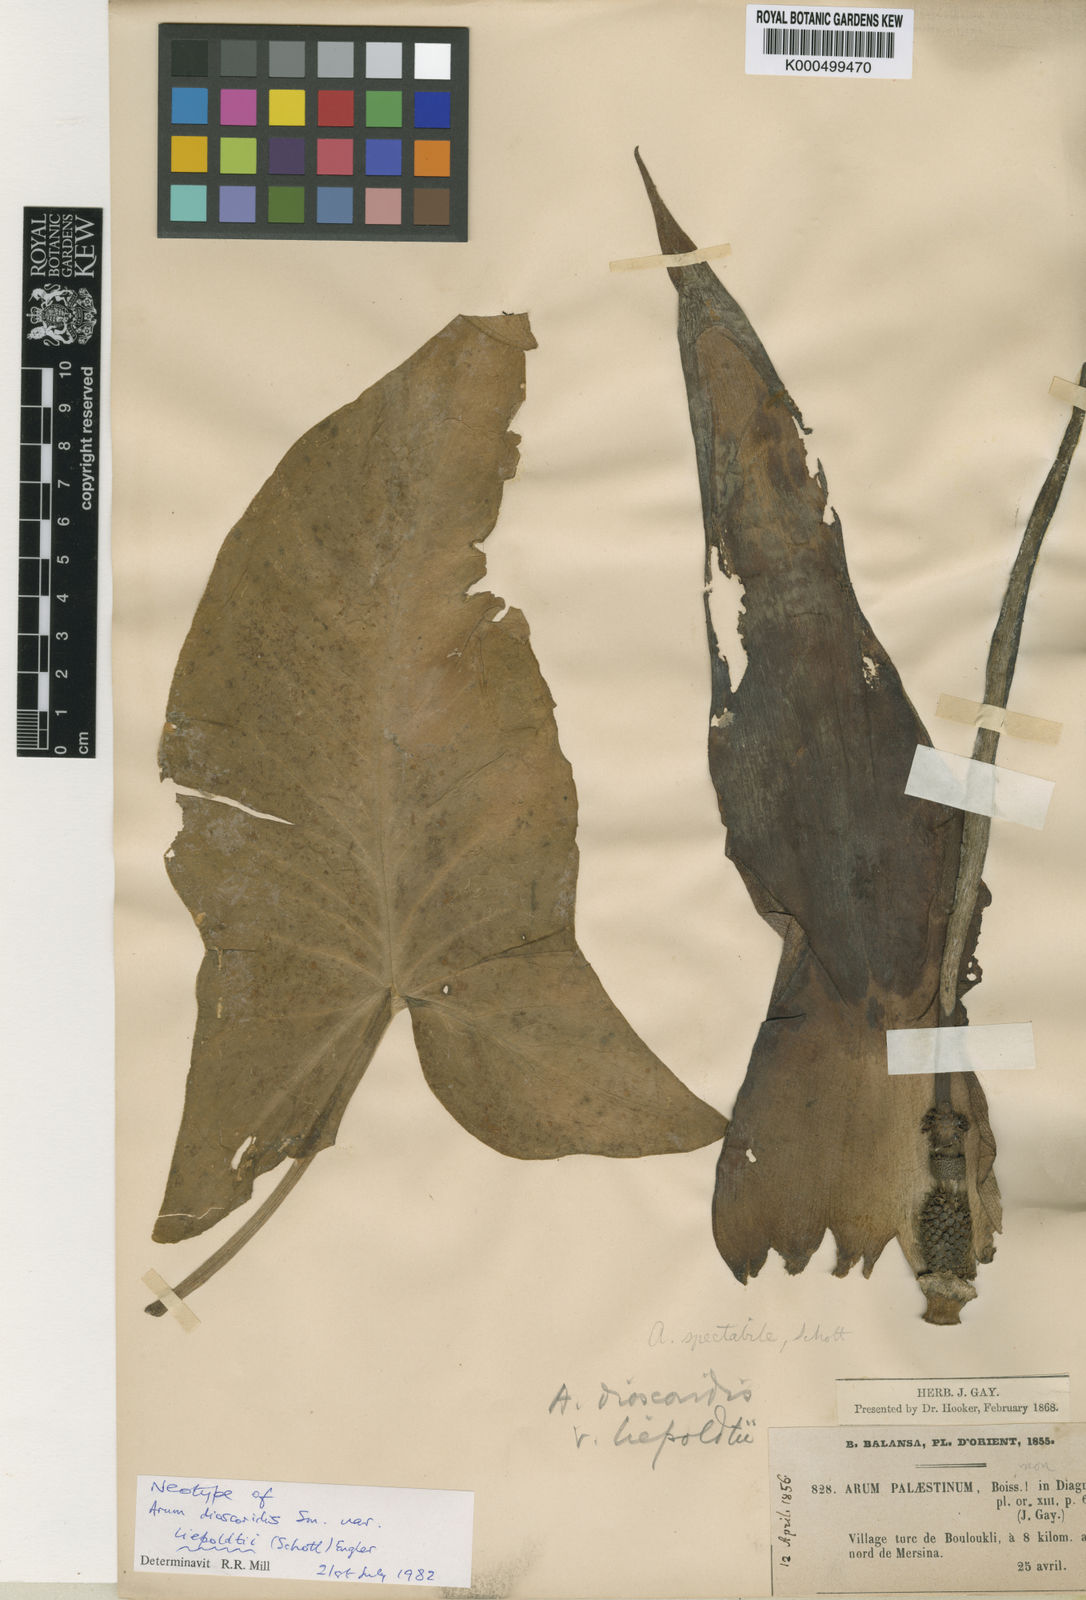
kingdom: Plantae
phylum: Tracheophyta
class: Liliopsida
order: Alismatales
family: Araceae
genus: Arum
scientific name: Arum dioscoridis
